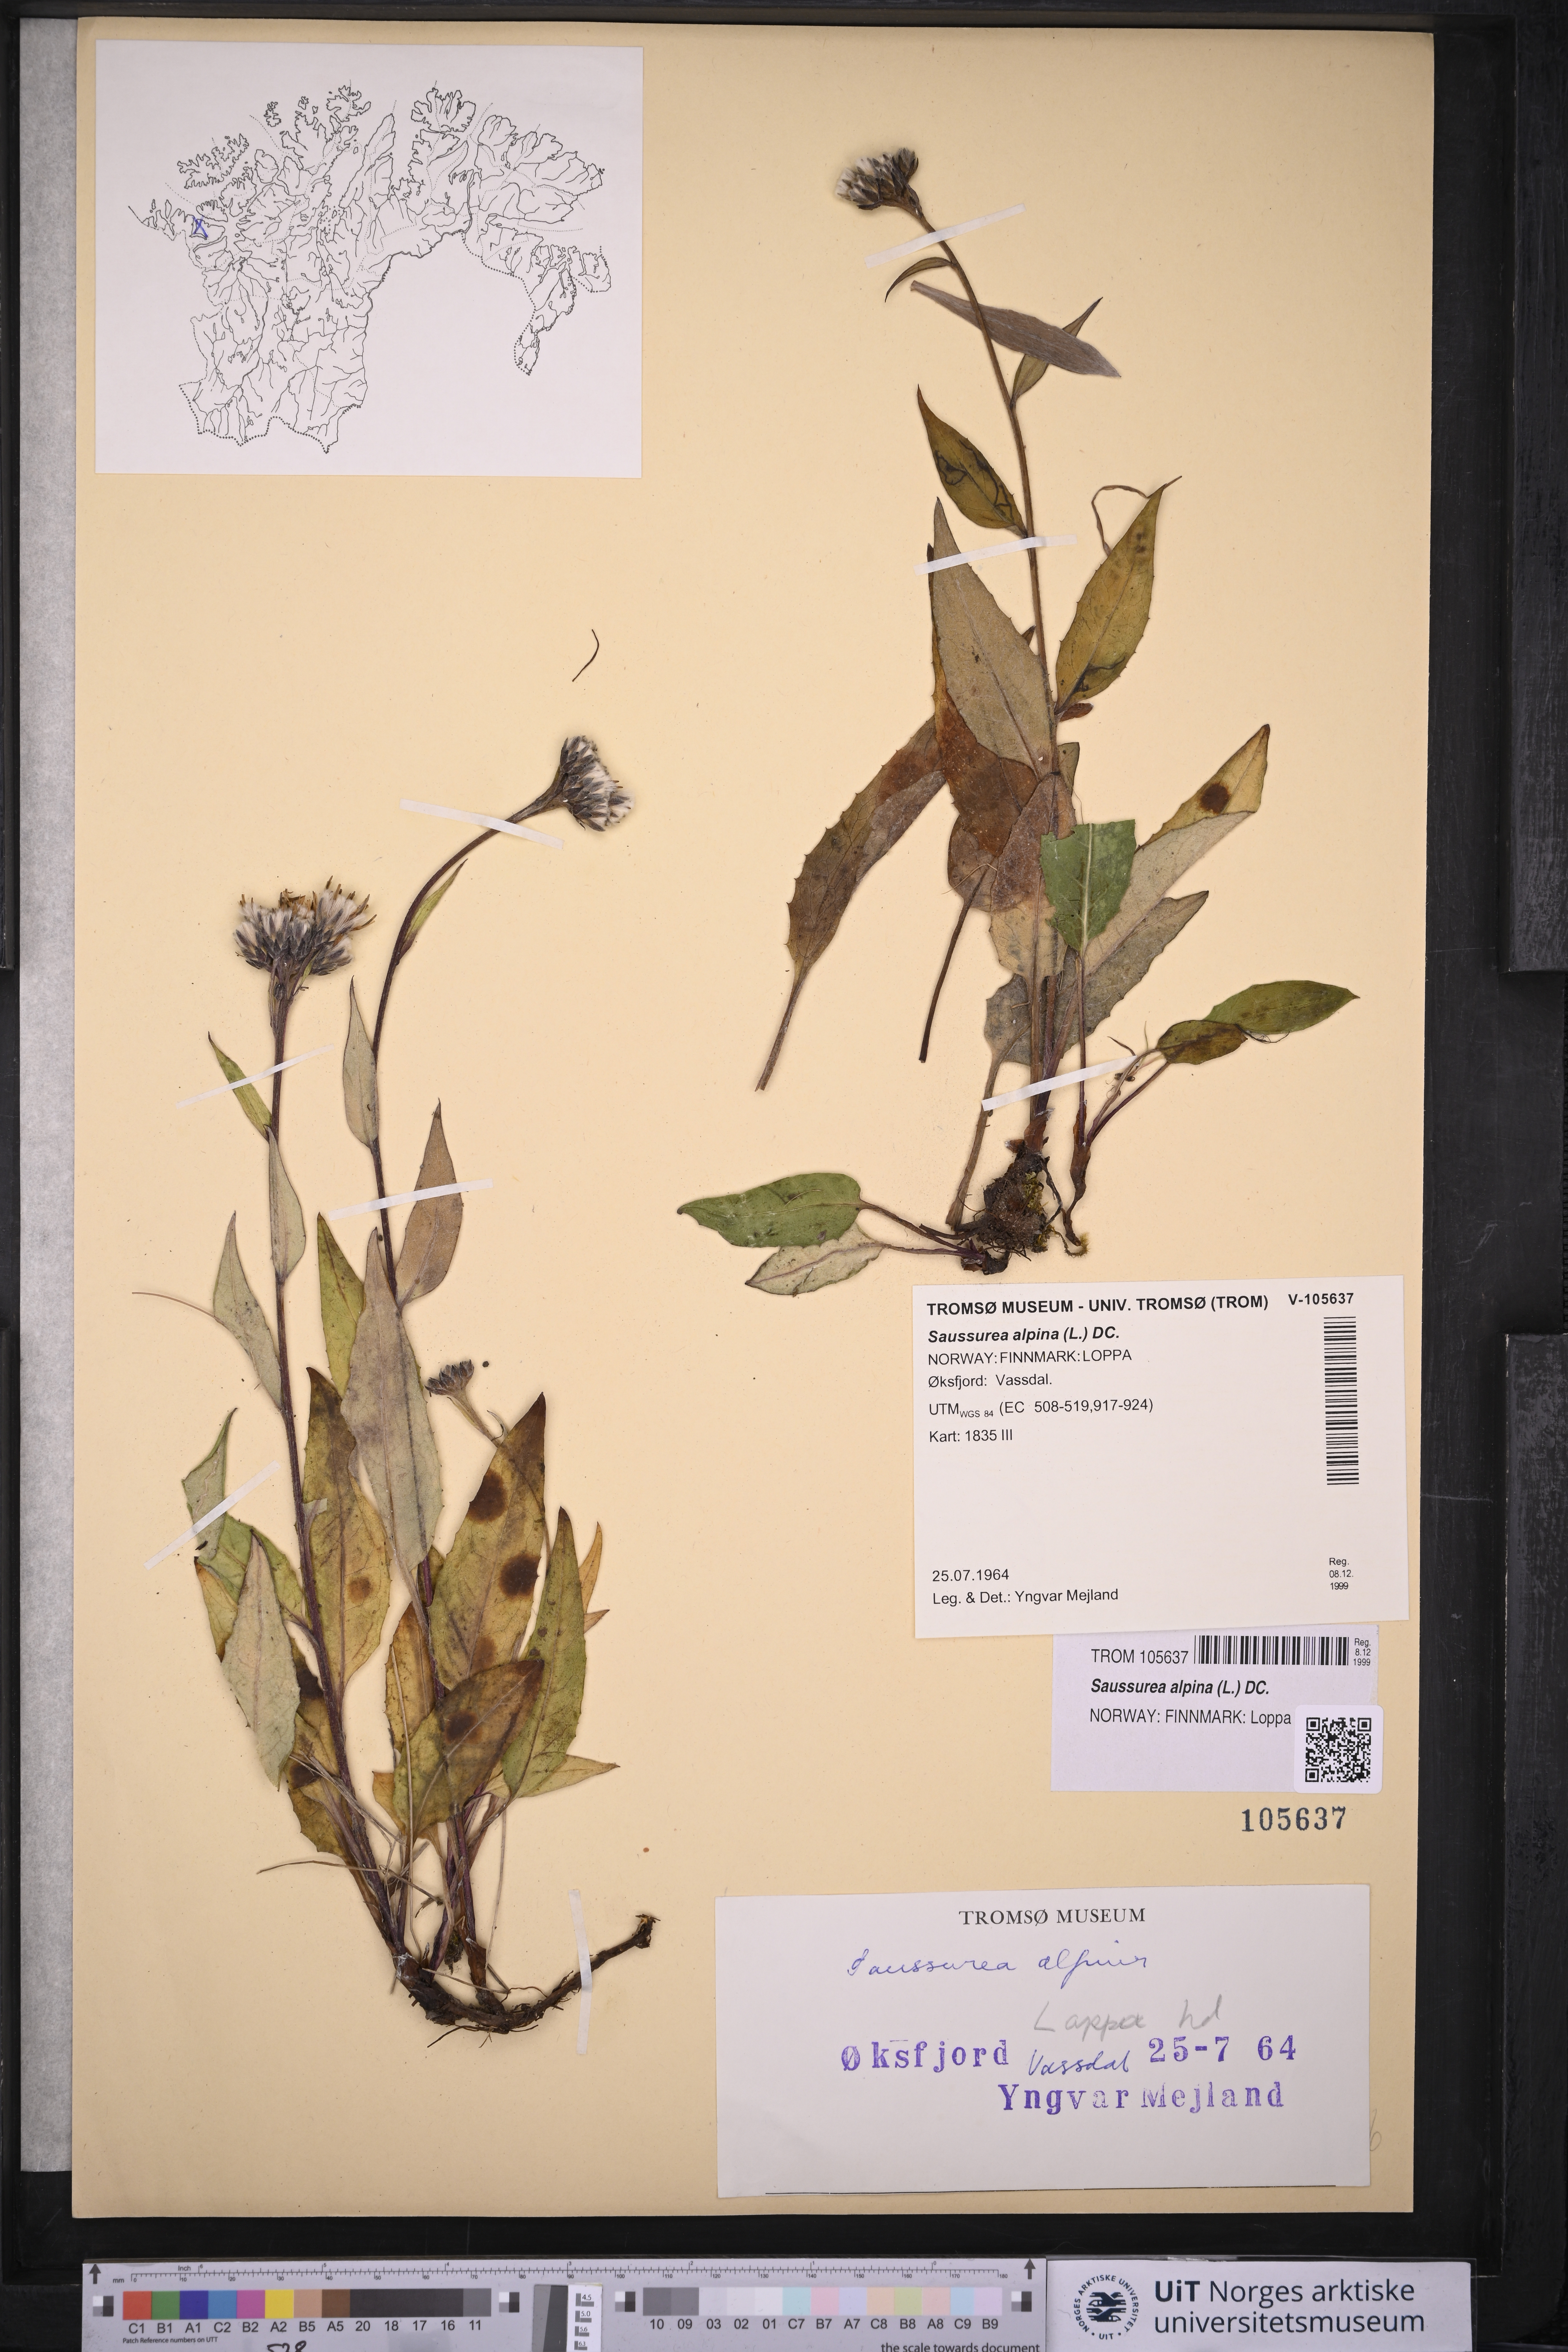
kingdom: Plantae
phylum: Tracheophyta
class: Magnoliopsida
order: Asterales
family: Asteraceae
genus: Saussurea
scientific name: Saussurea alpina
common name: Alpine saw-wort
